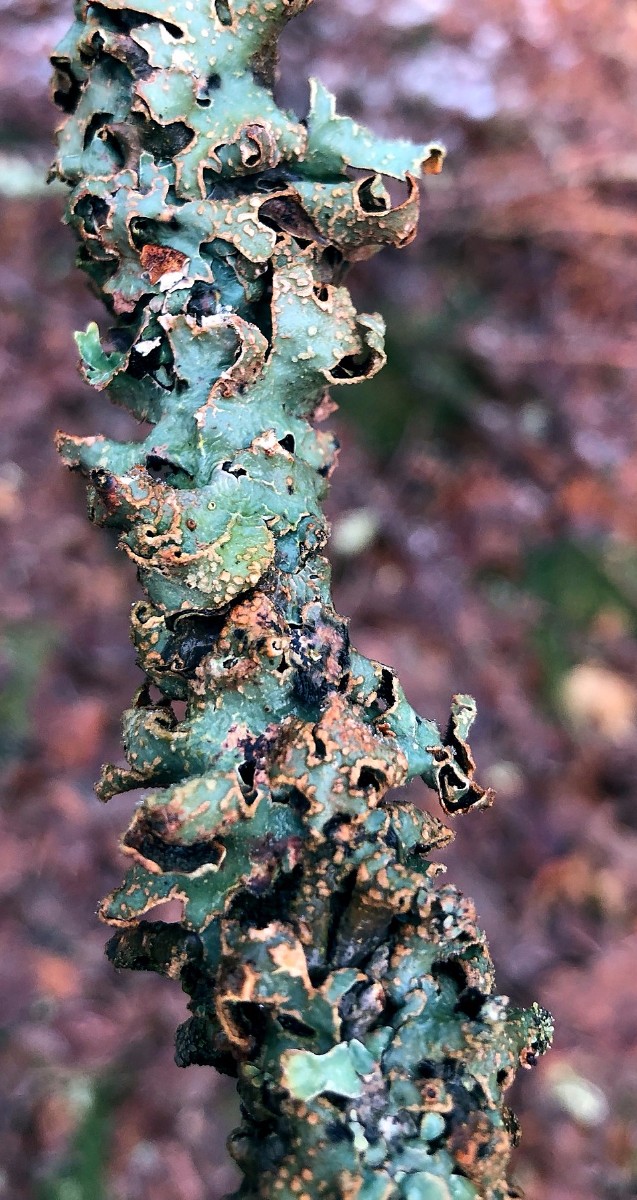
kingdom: Fungi
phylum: Ascomycota
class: Lecanoromycetes
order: Lecanorales
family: Parmeliaceae
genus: Parmelia
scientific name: Parmelia sulcata
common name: rynket skållav
